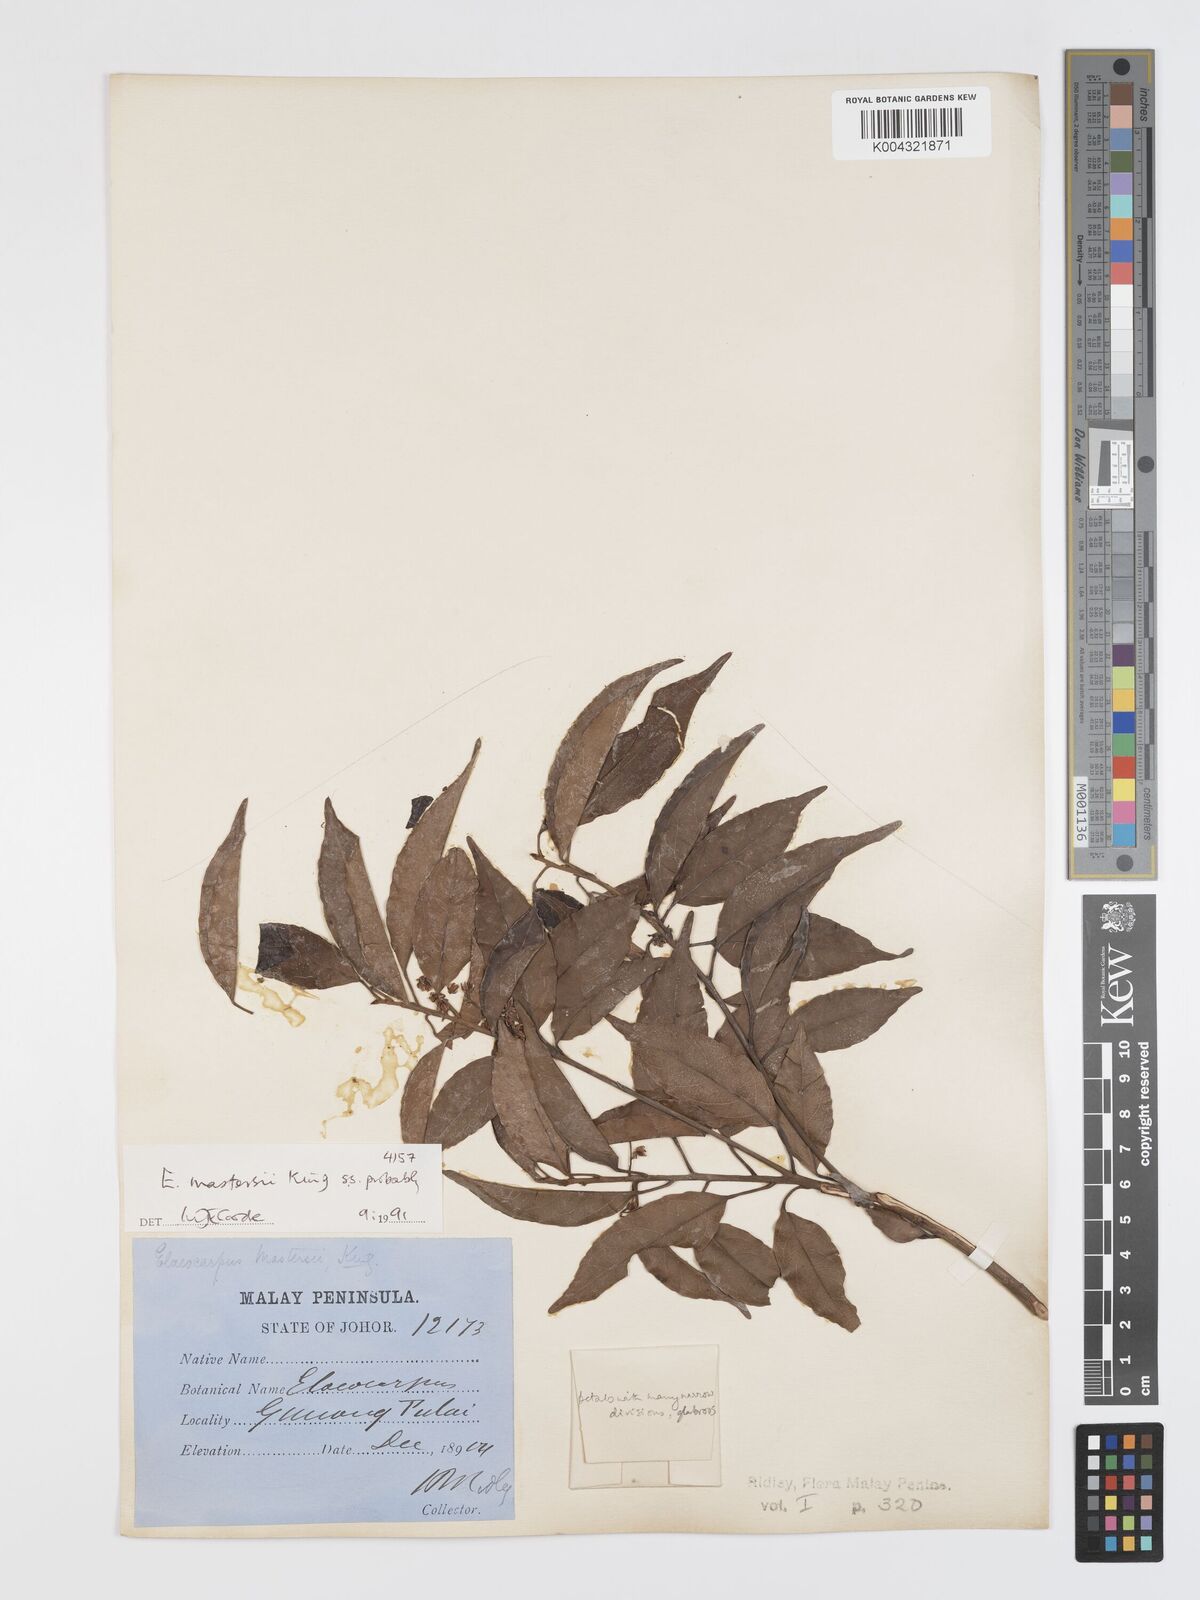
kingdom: Plantae
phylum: Tracheophyta
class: Magnoliopsida
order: Oxalidales
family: Elaeocarpaceae
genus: Elaeocarpus
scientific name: Elaeocarpus mastersii
